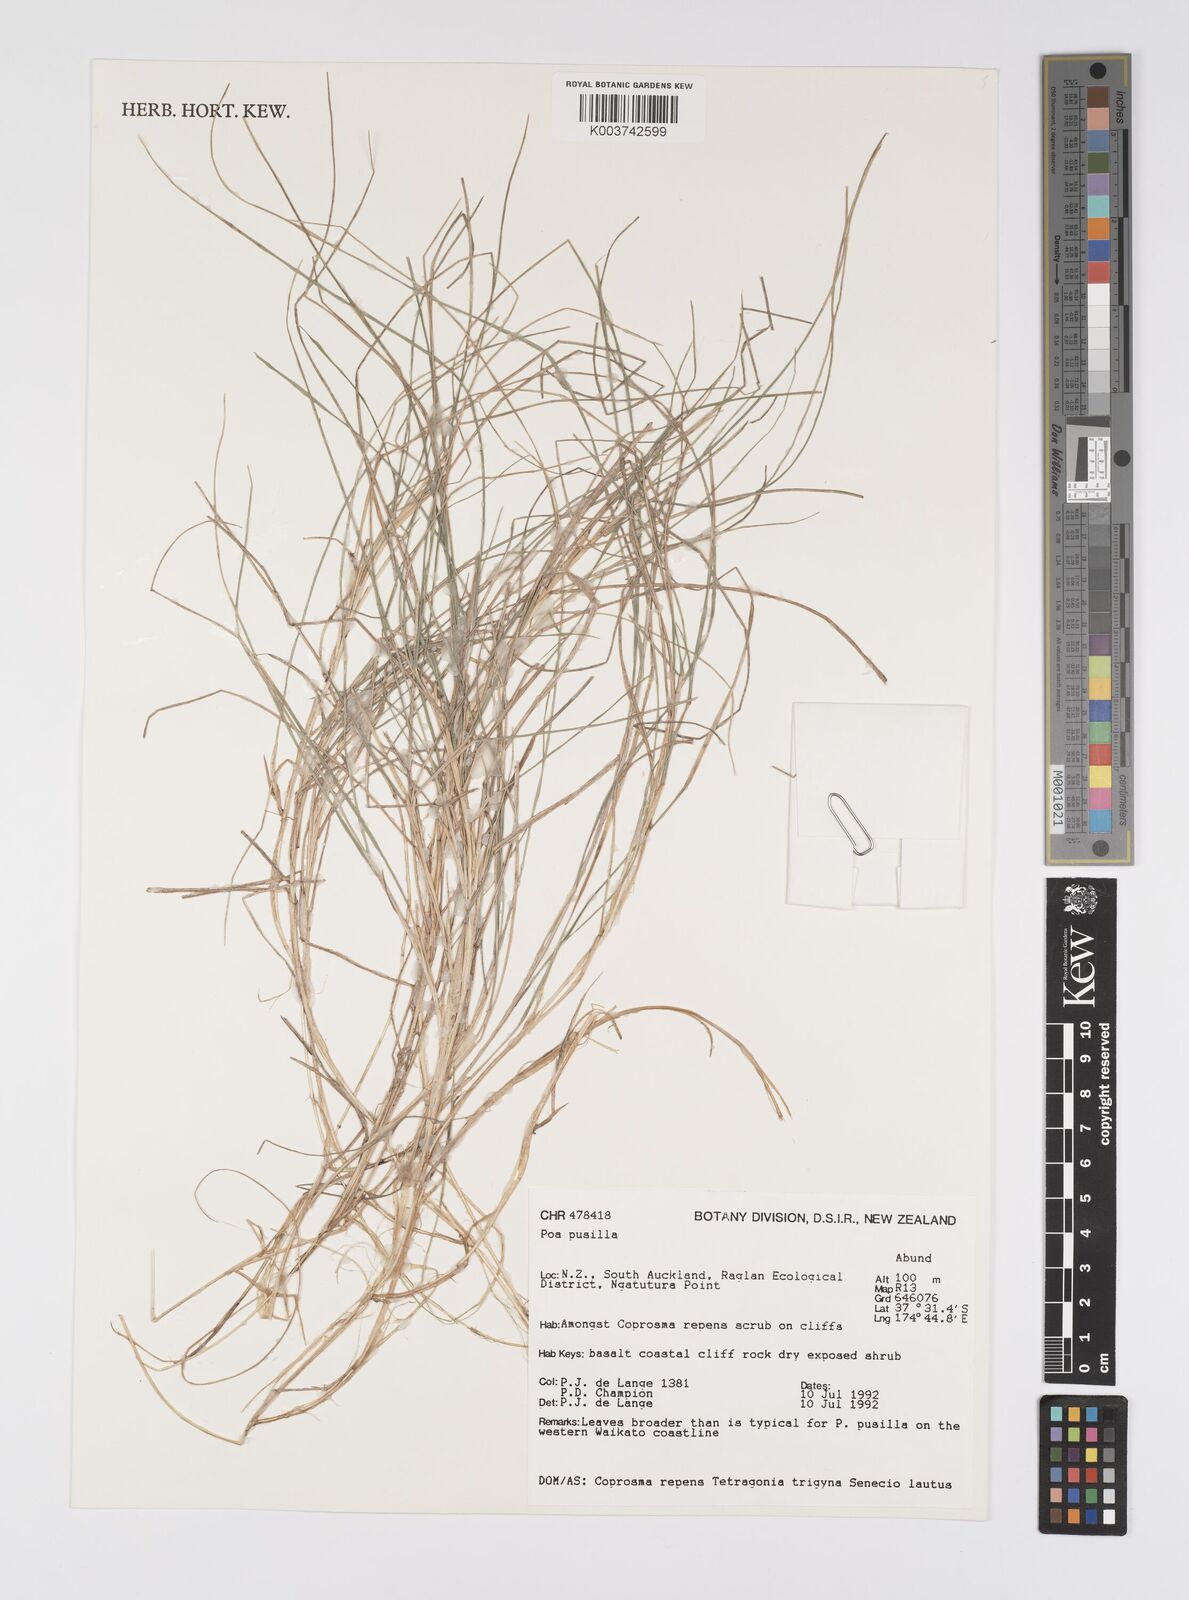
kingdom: Plantae
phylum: Tracheophyta
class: Liliopsida
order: Poales
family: Poaceae
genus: Poa
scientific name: Poa anceps
